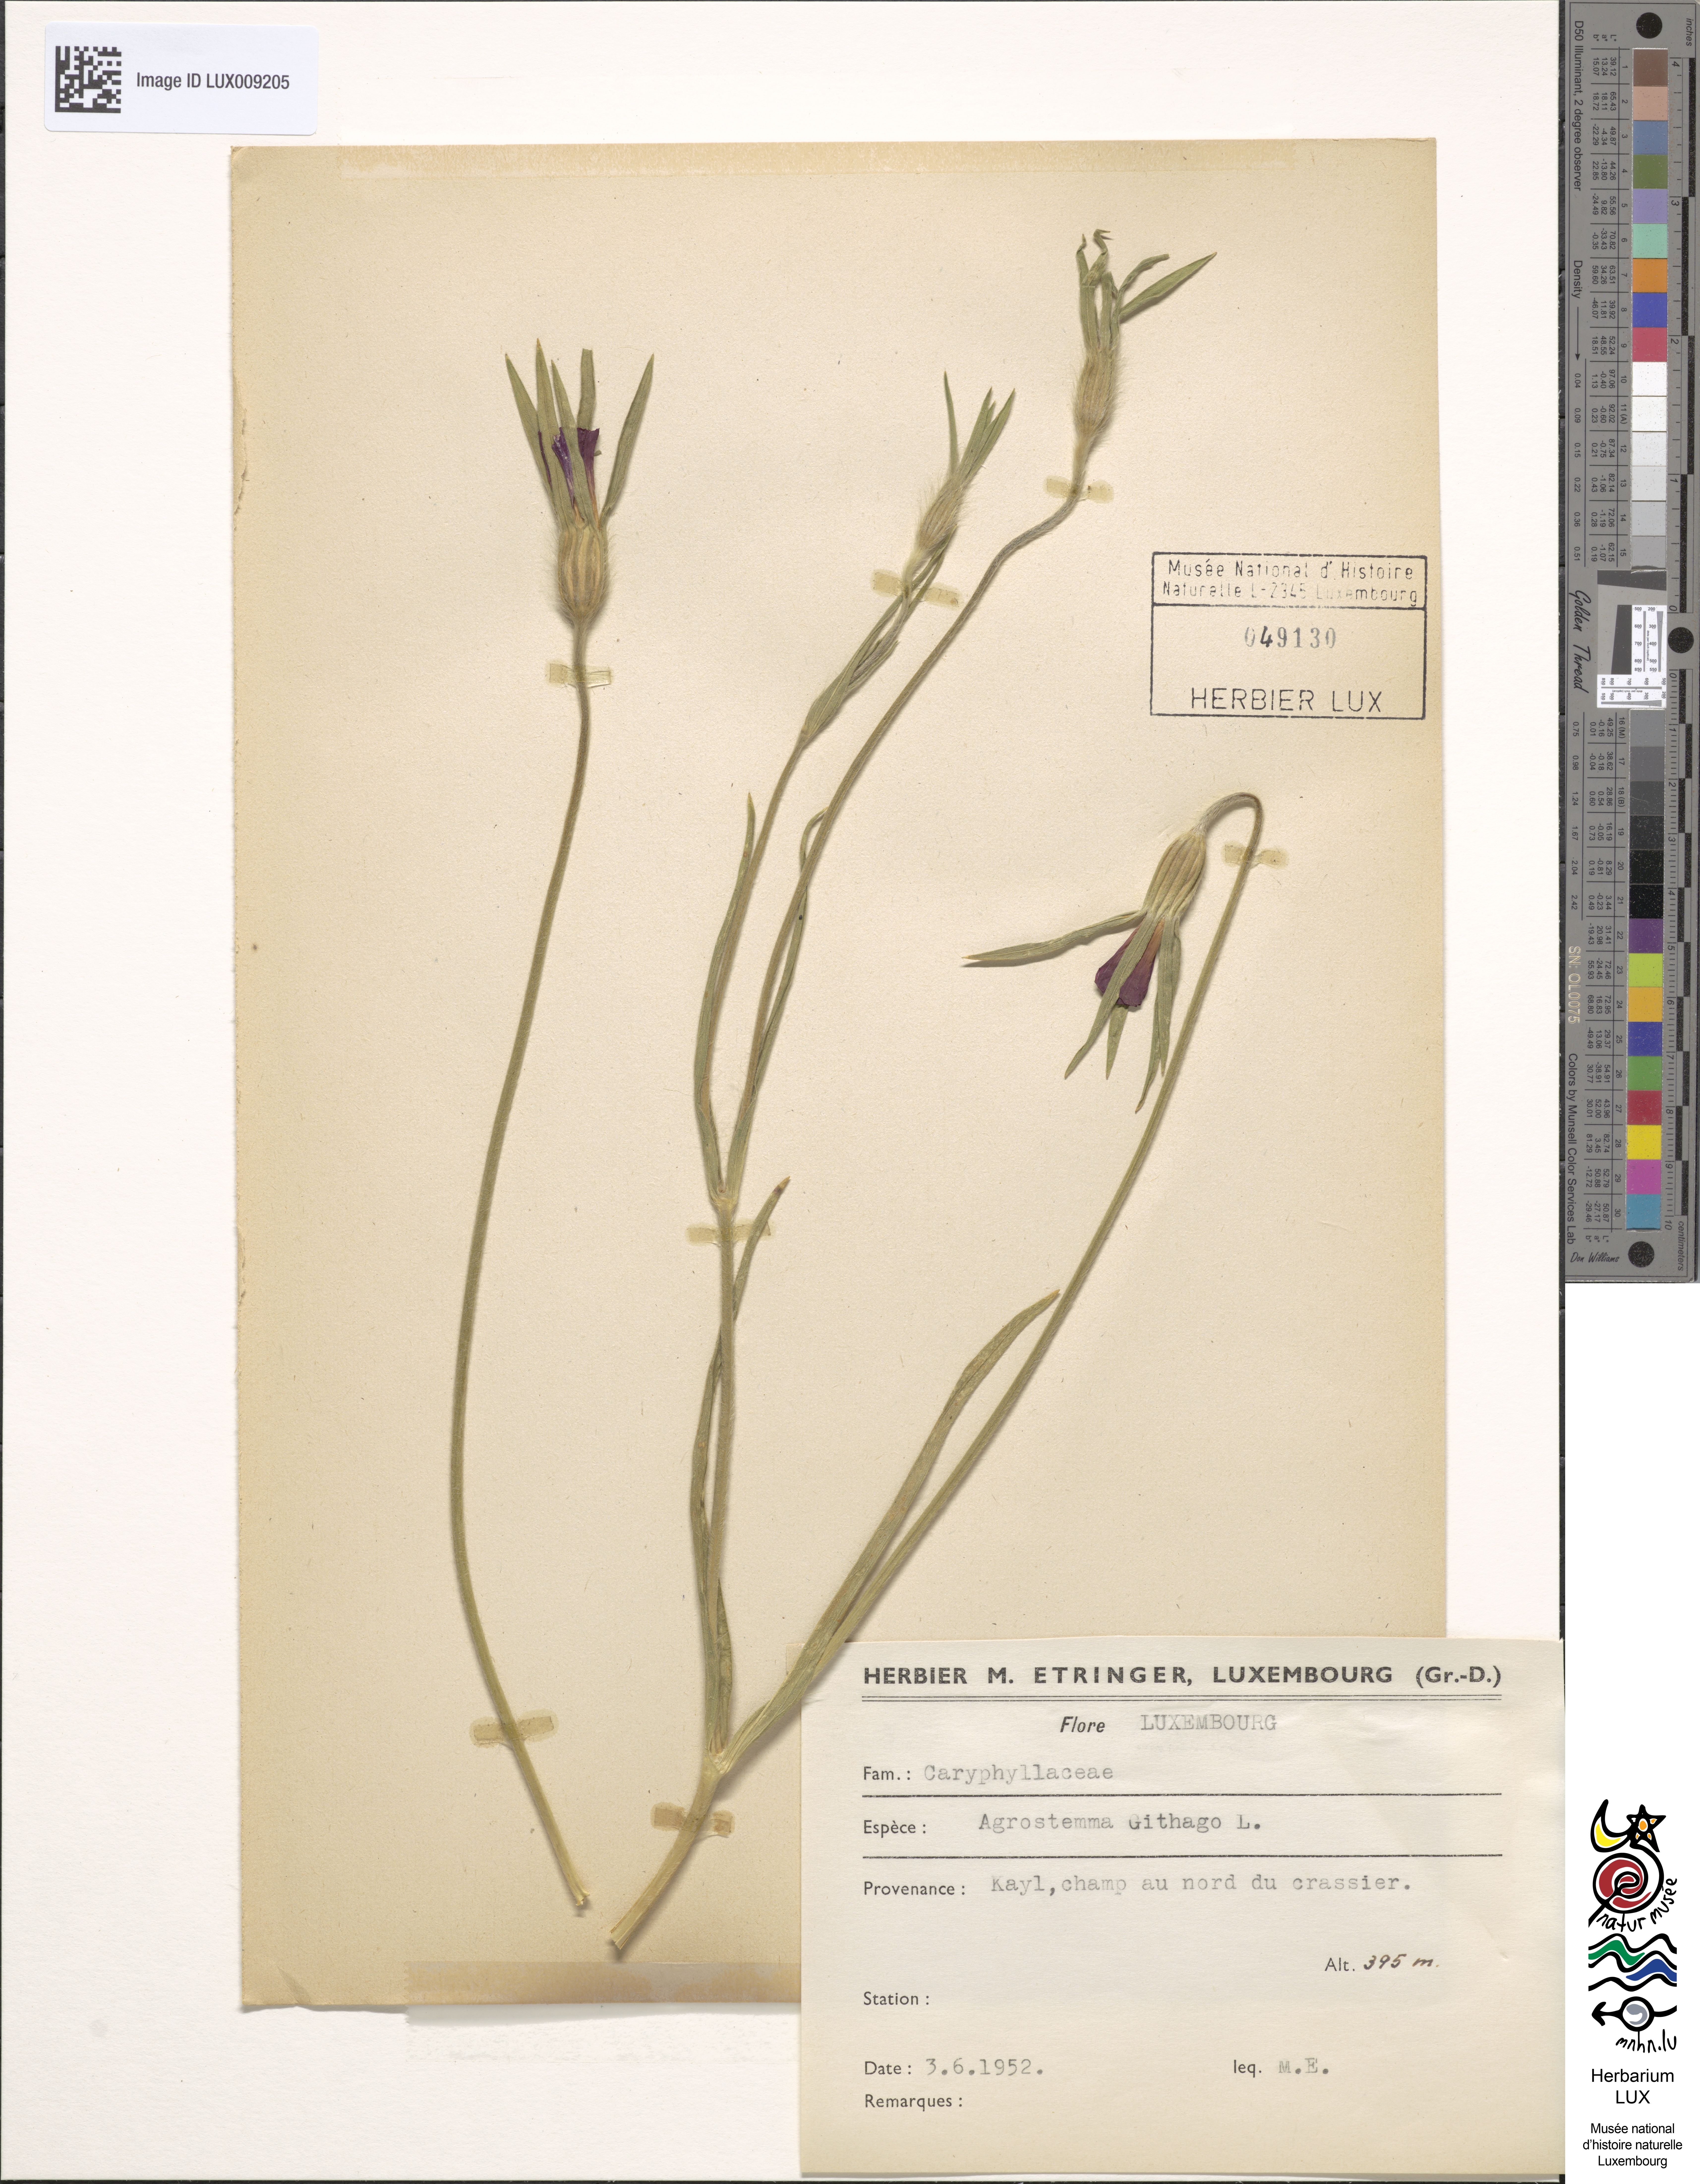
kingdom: Plantae
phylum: Tracheophyta
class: Magnoliopsida
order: Caryophyllales
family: Caryophyllaceae
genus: Agrostemma
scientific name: Agrostemma githago
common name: Common corncockle
